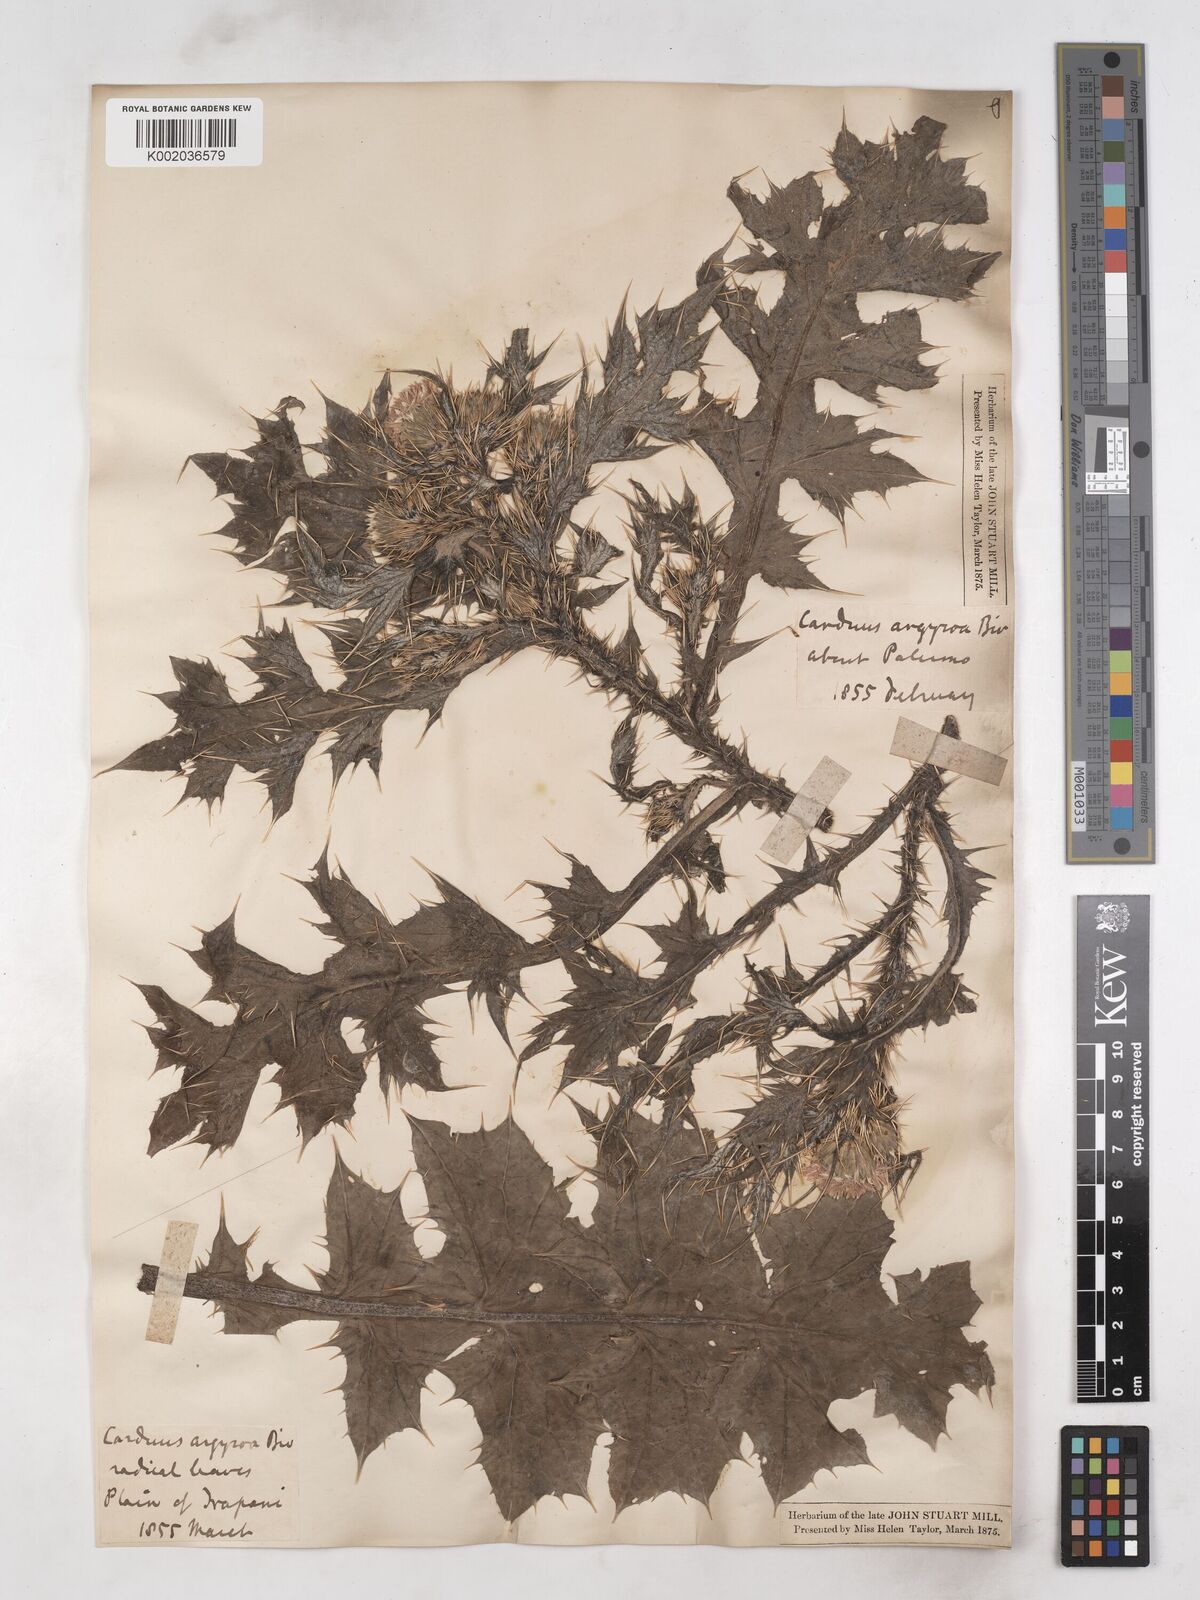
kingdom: Plantae
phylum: Tracheophyta
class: Magnoliopsida
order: Asterales
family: Asteraceae
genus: Carduus
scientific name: Carduus argyroa
